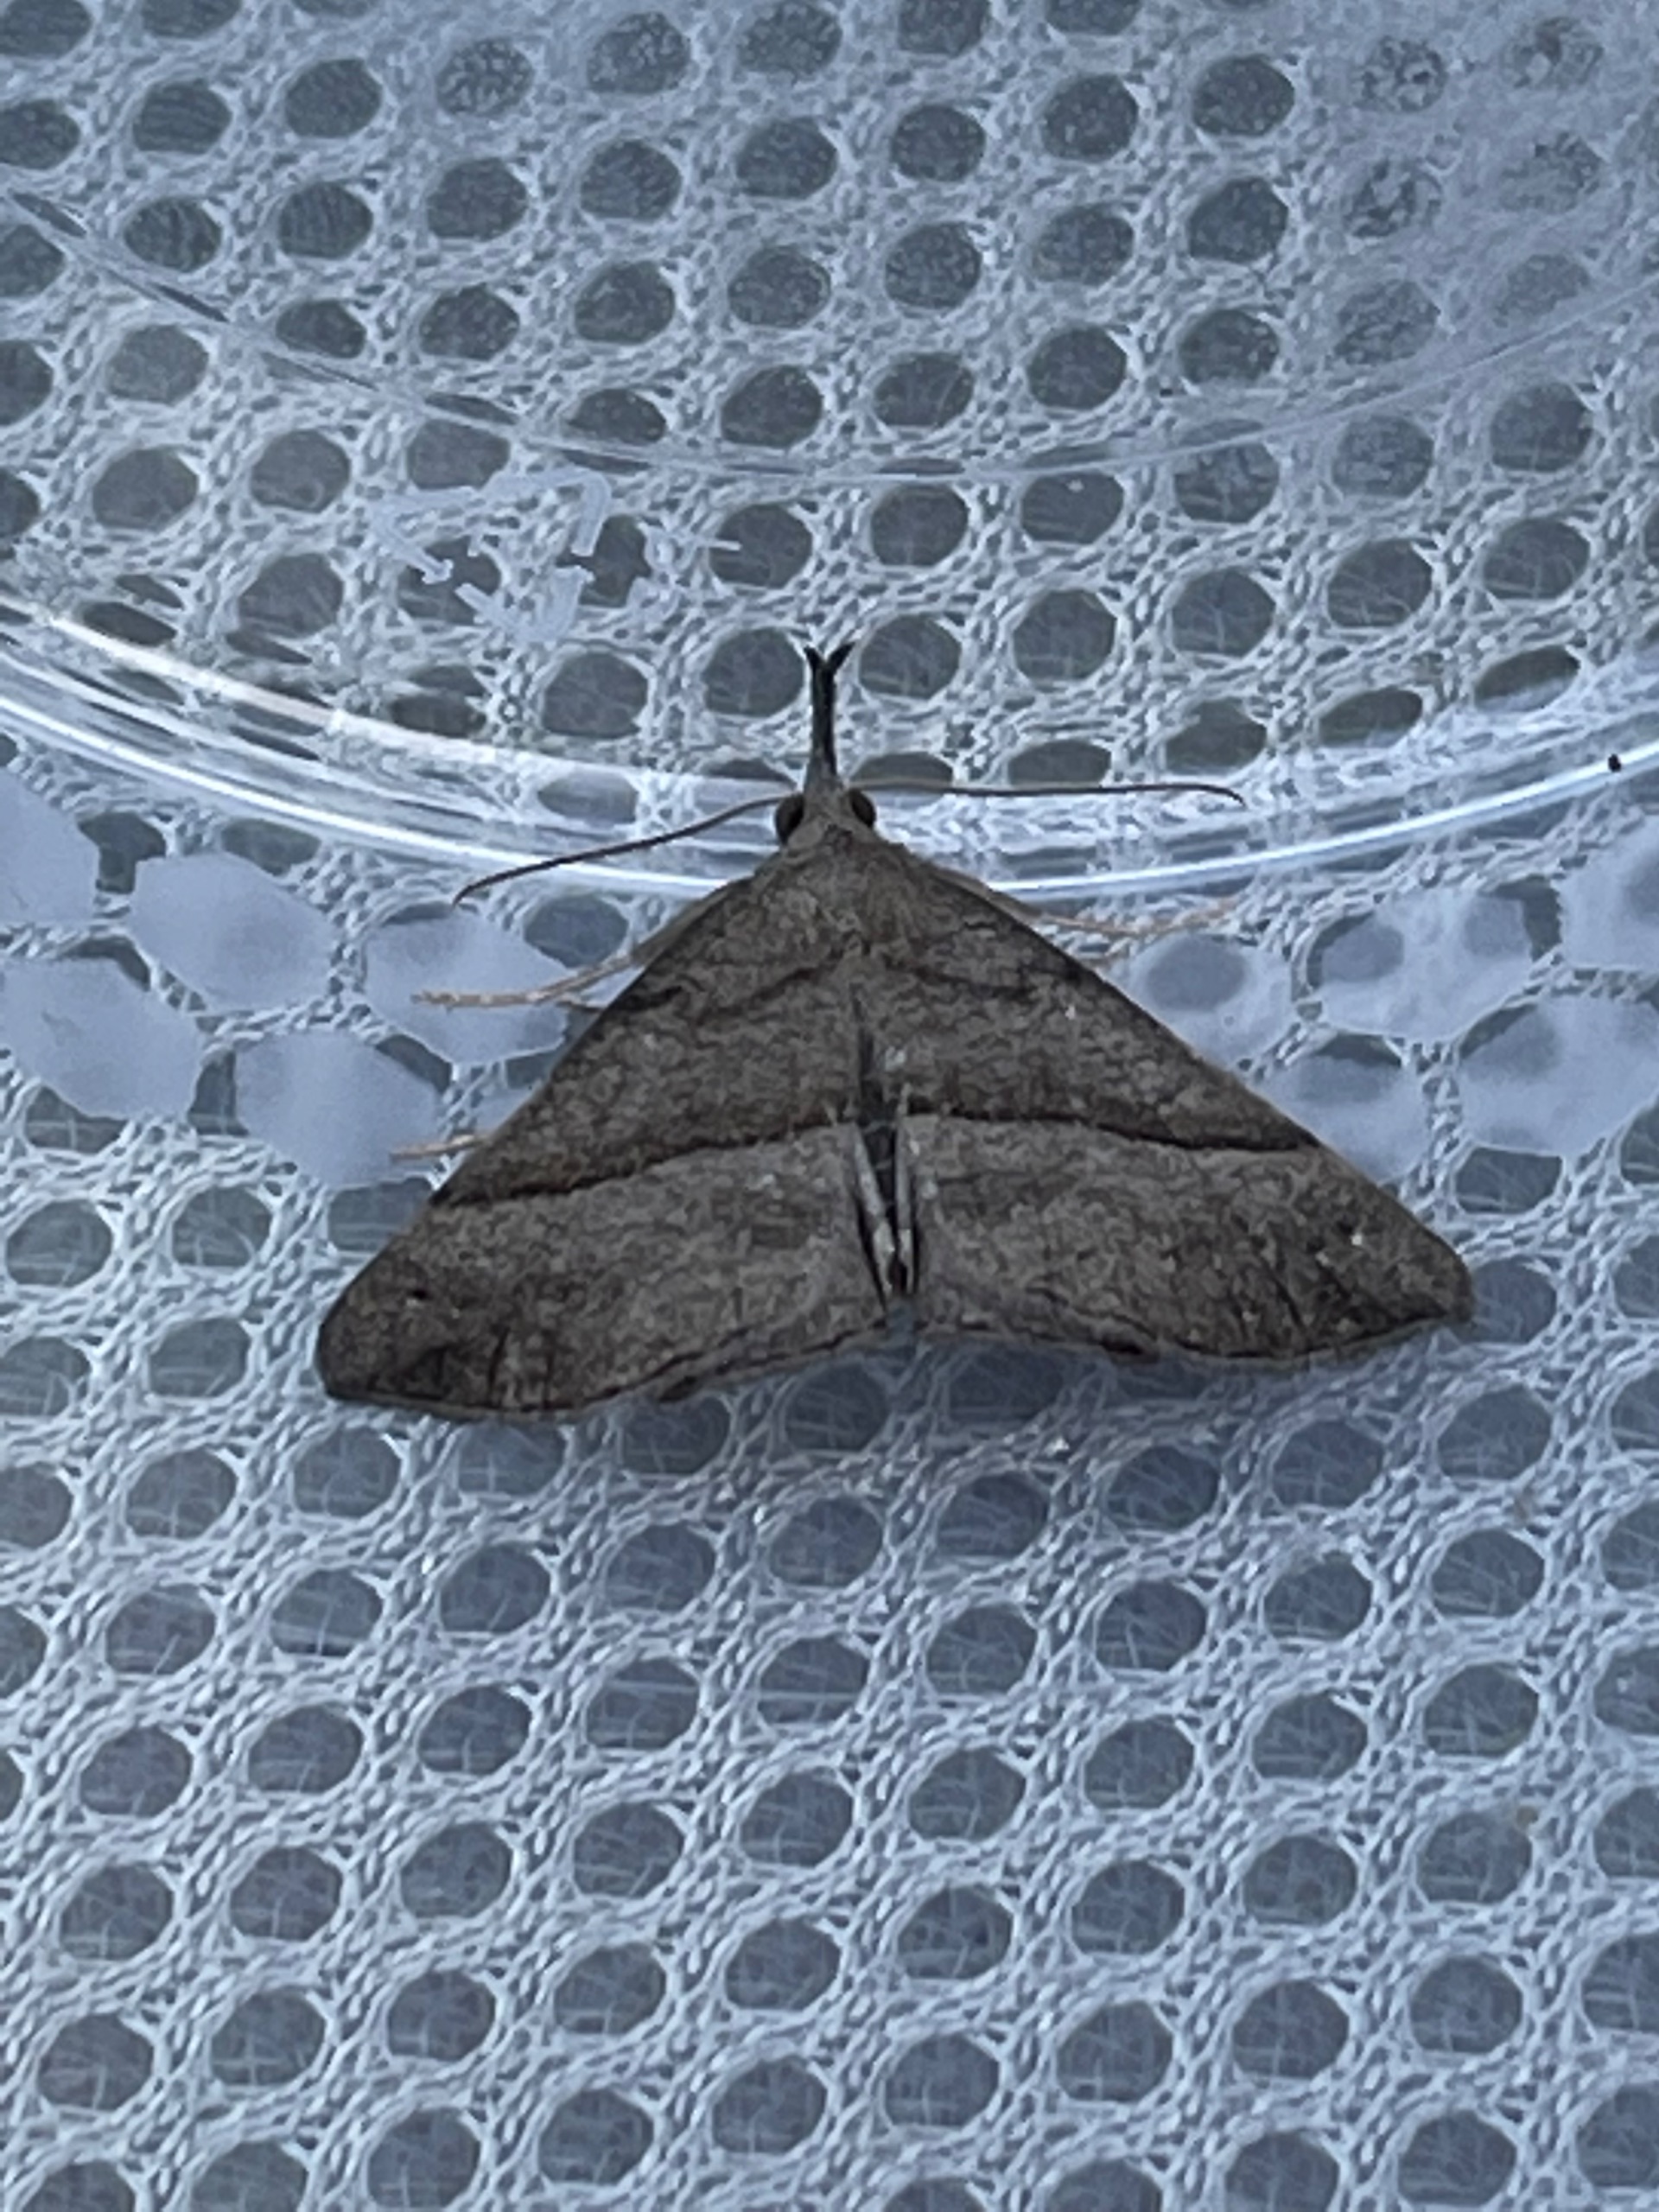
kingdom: Animalia
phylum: Arthropoda
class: Insecta
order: Lepidoptera
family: Erebidae
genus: Hypena
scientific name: Hypena proboscidalis
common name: Snudeugle
